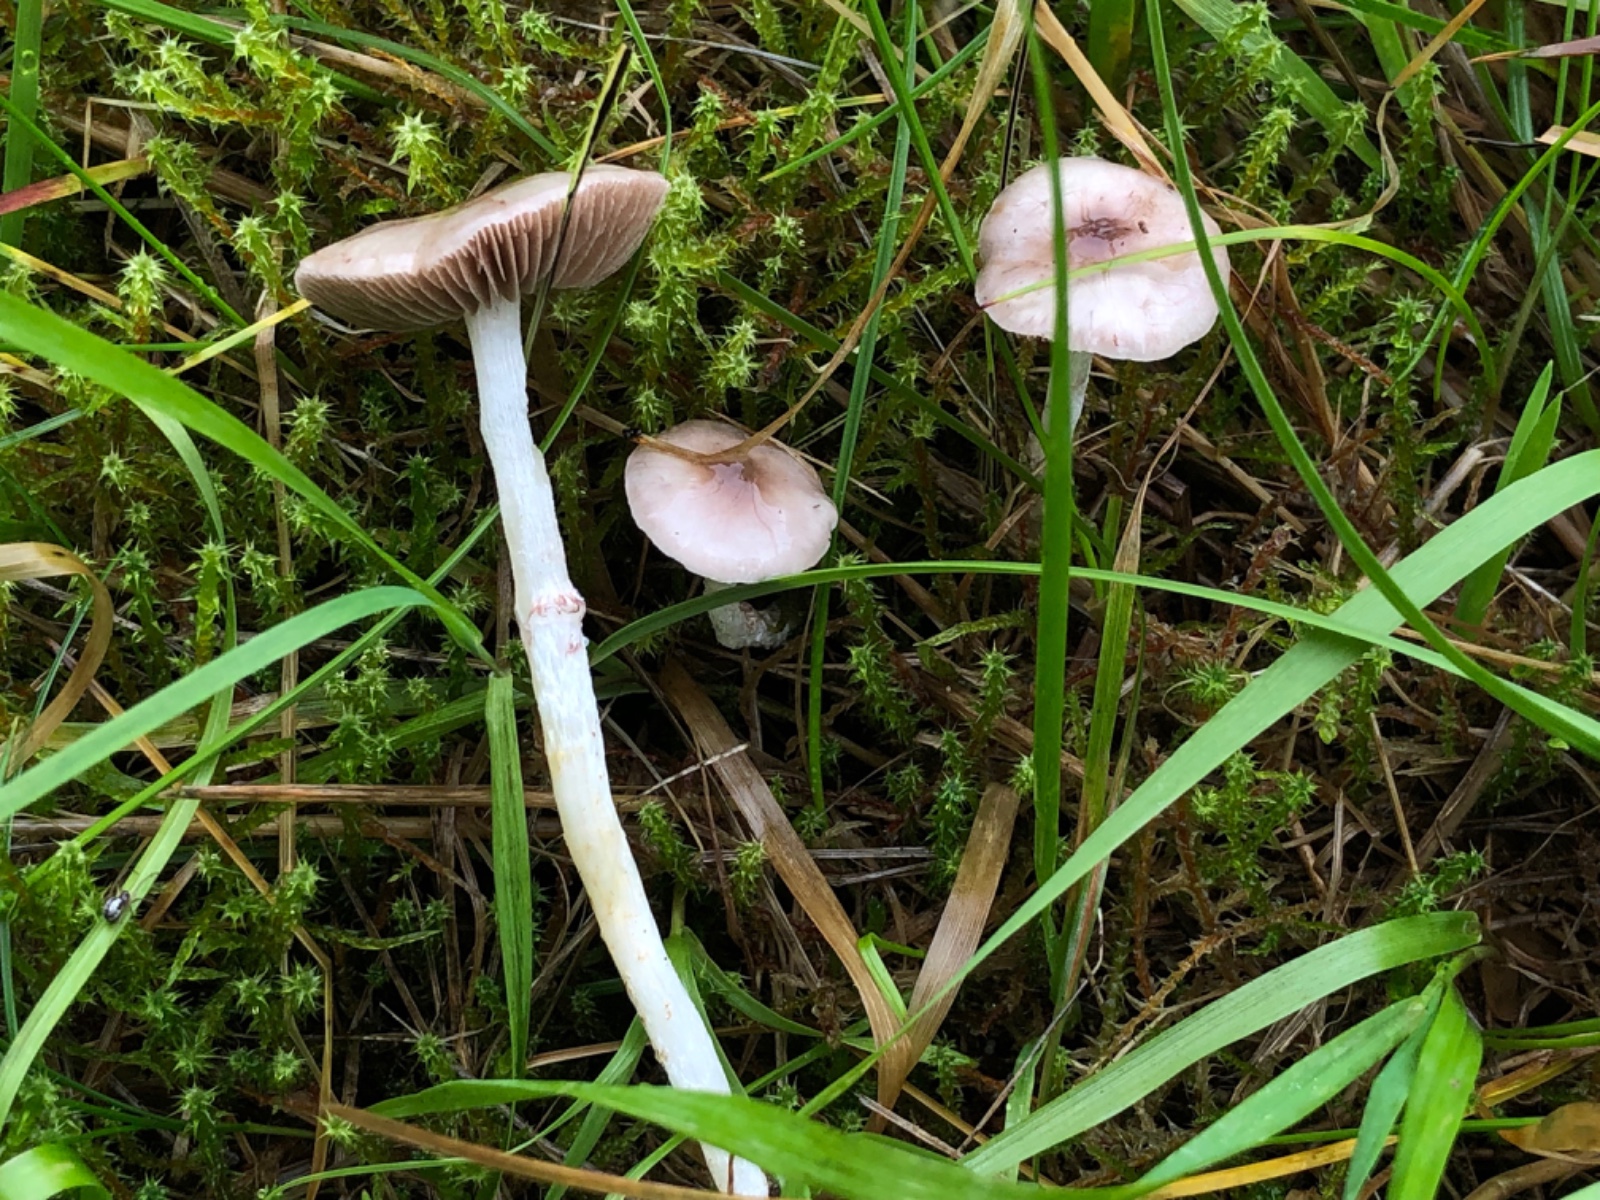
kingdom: Fungi
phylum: Basidiomycota
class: Agaricomycetes
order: Agaricales
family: Strophariaceae
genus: Stropharia
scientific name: Stropharia inuncta
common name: lillabrun bredblad
